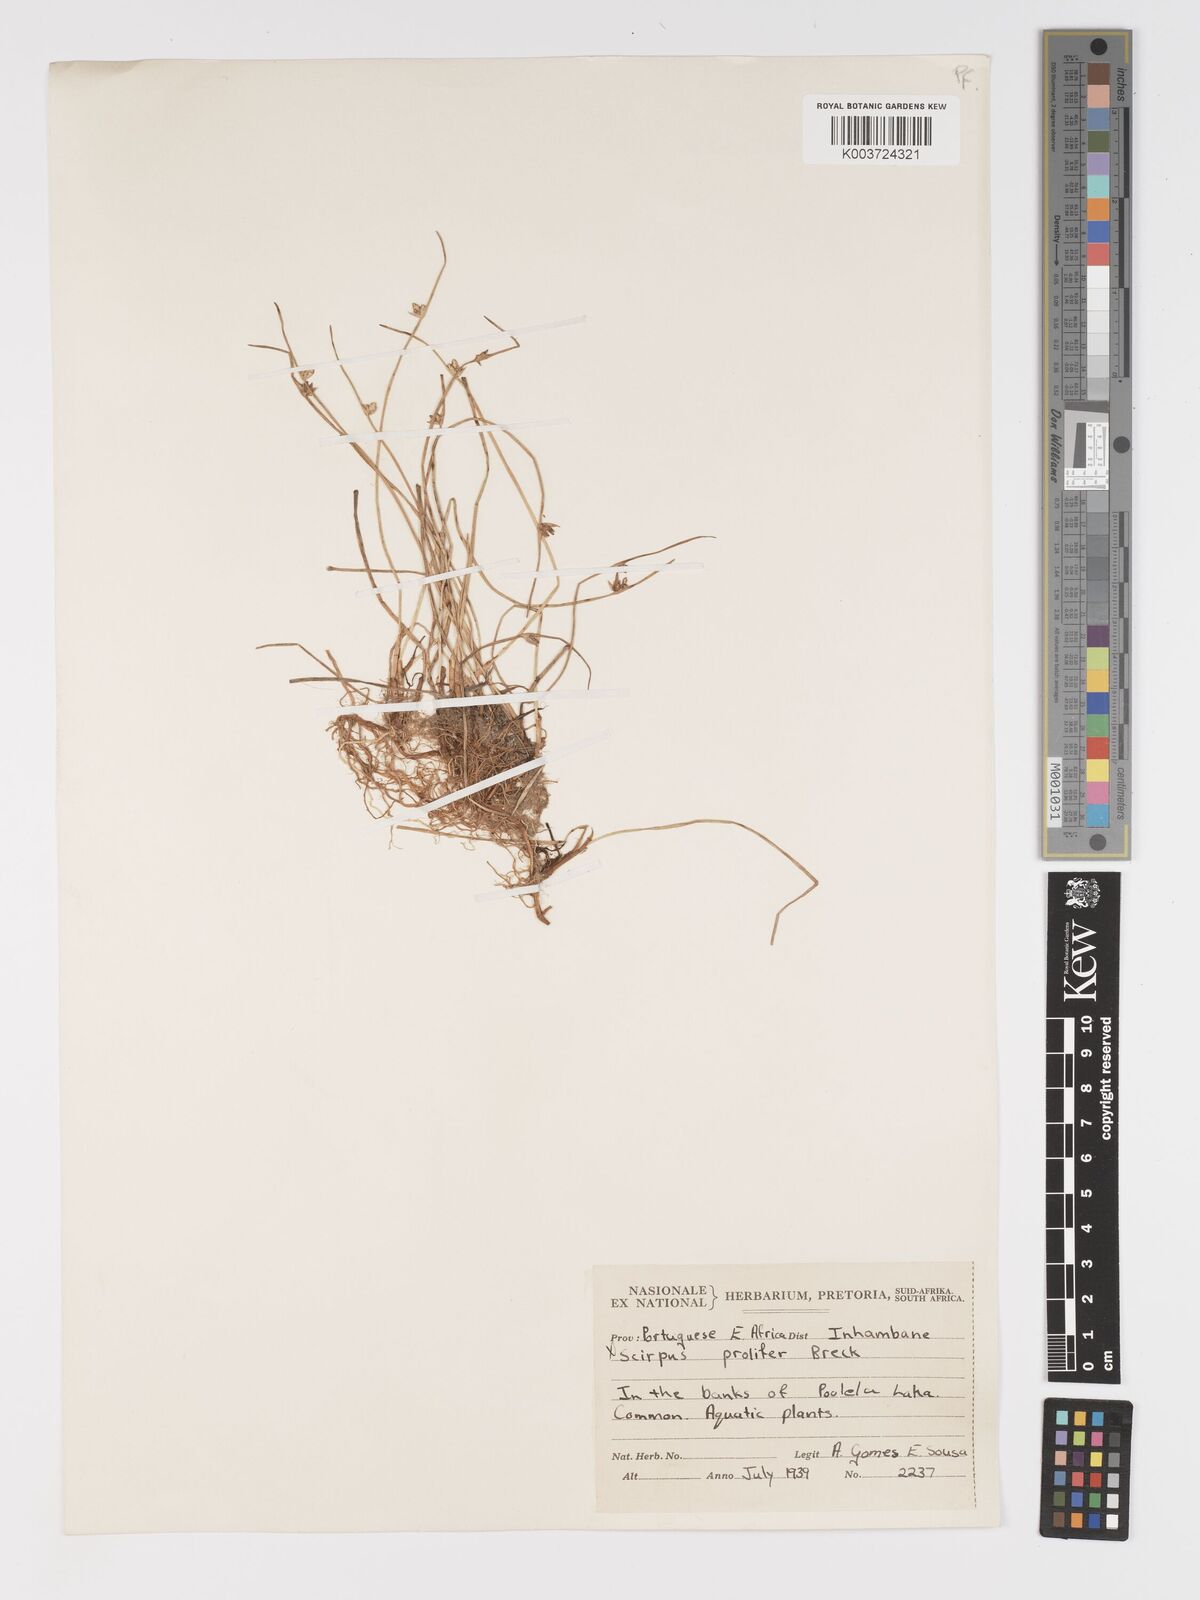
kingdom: Plantae
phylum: Tracheophyta
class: Liliopsida
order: Poales
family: Cyperaceae
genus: Cyperus
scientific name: Cyperus laevigatus
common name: Smooth flat sedge
